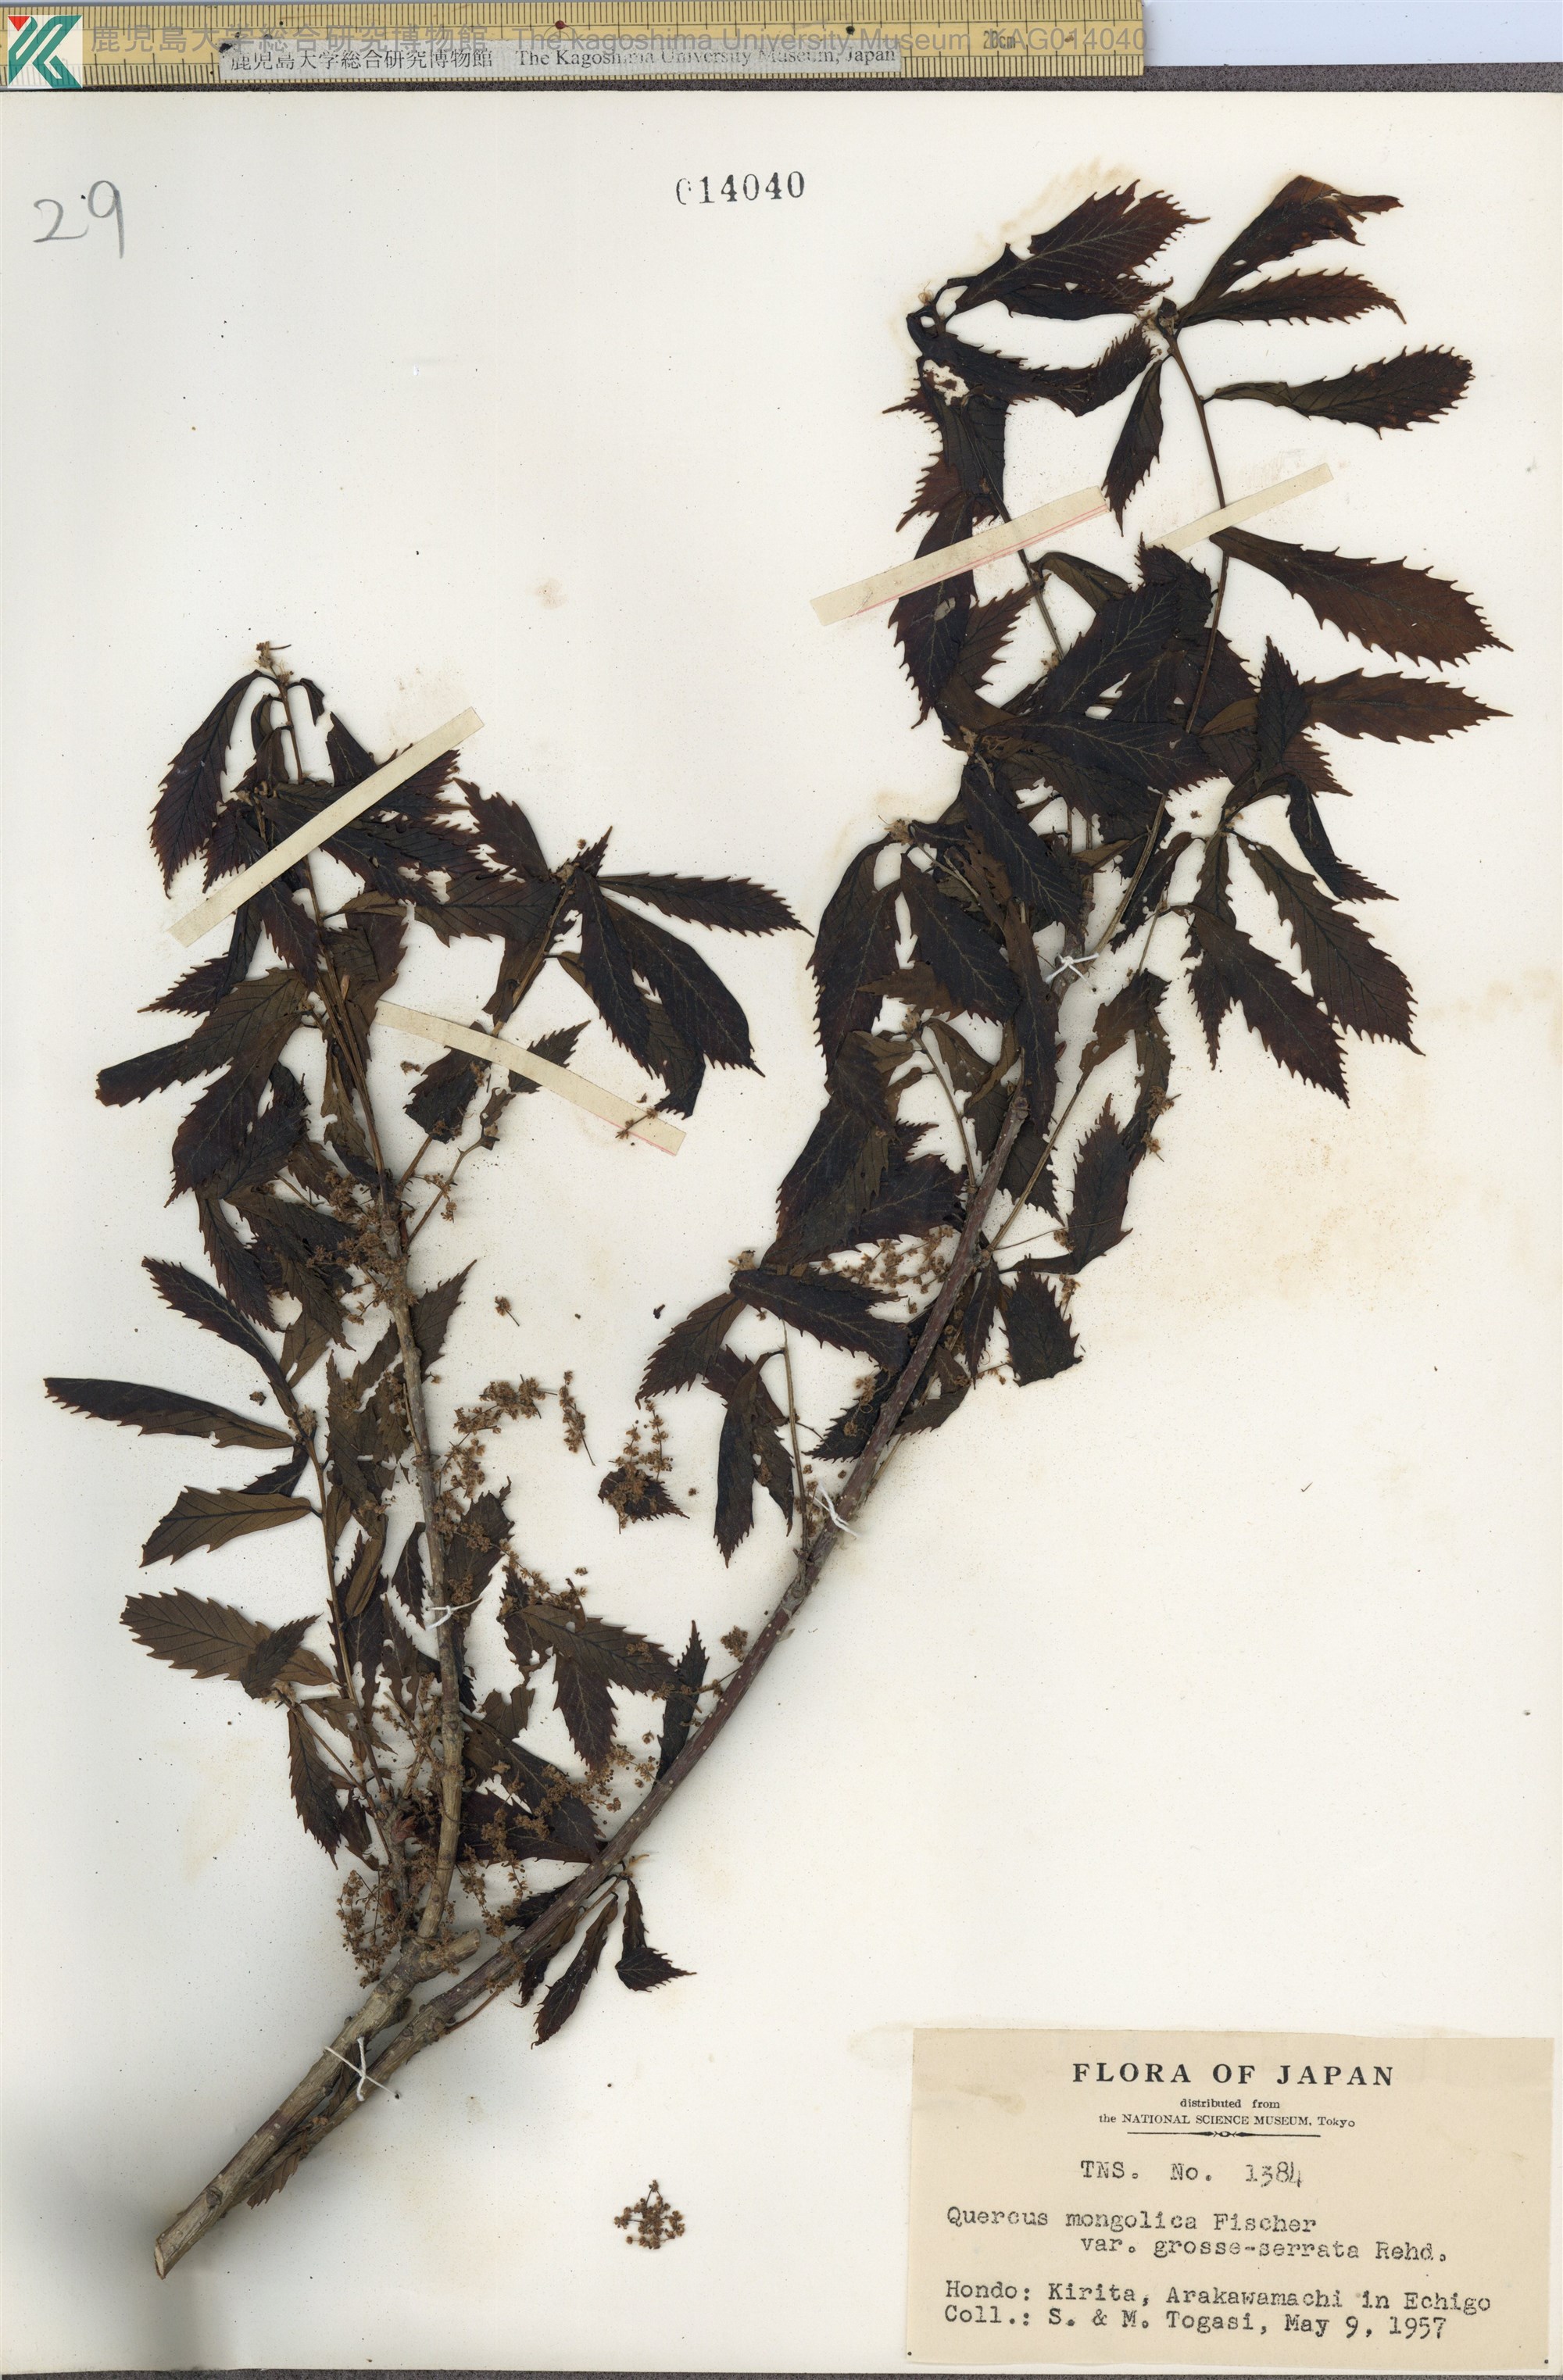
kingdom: Plantae
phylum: Tracheophyta
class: Magnoliopsida
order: Fagales
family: Fagaceae
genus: Quercus
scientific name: Quercus crispula
